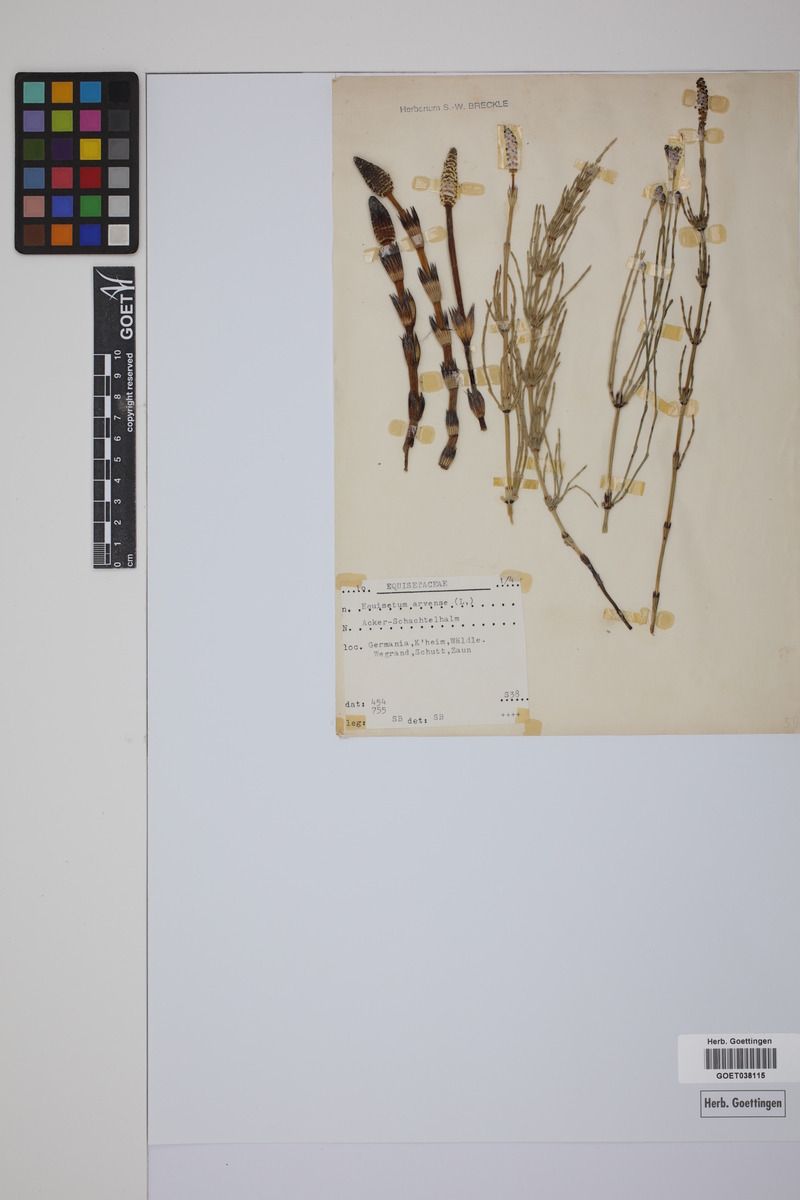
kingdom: Plantae
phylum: Tracheophyta
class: Polypodiopsida
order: Equisetales
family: Equisetaceae
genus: Equisetum
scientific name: Equisetum arvense
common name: Field horsetail
